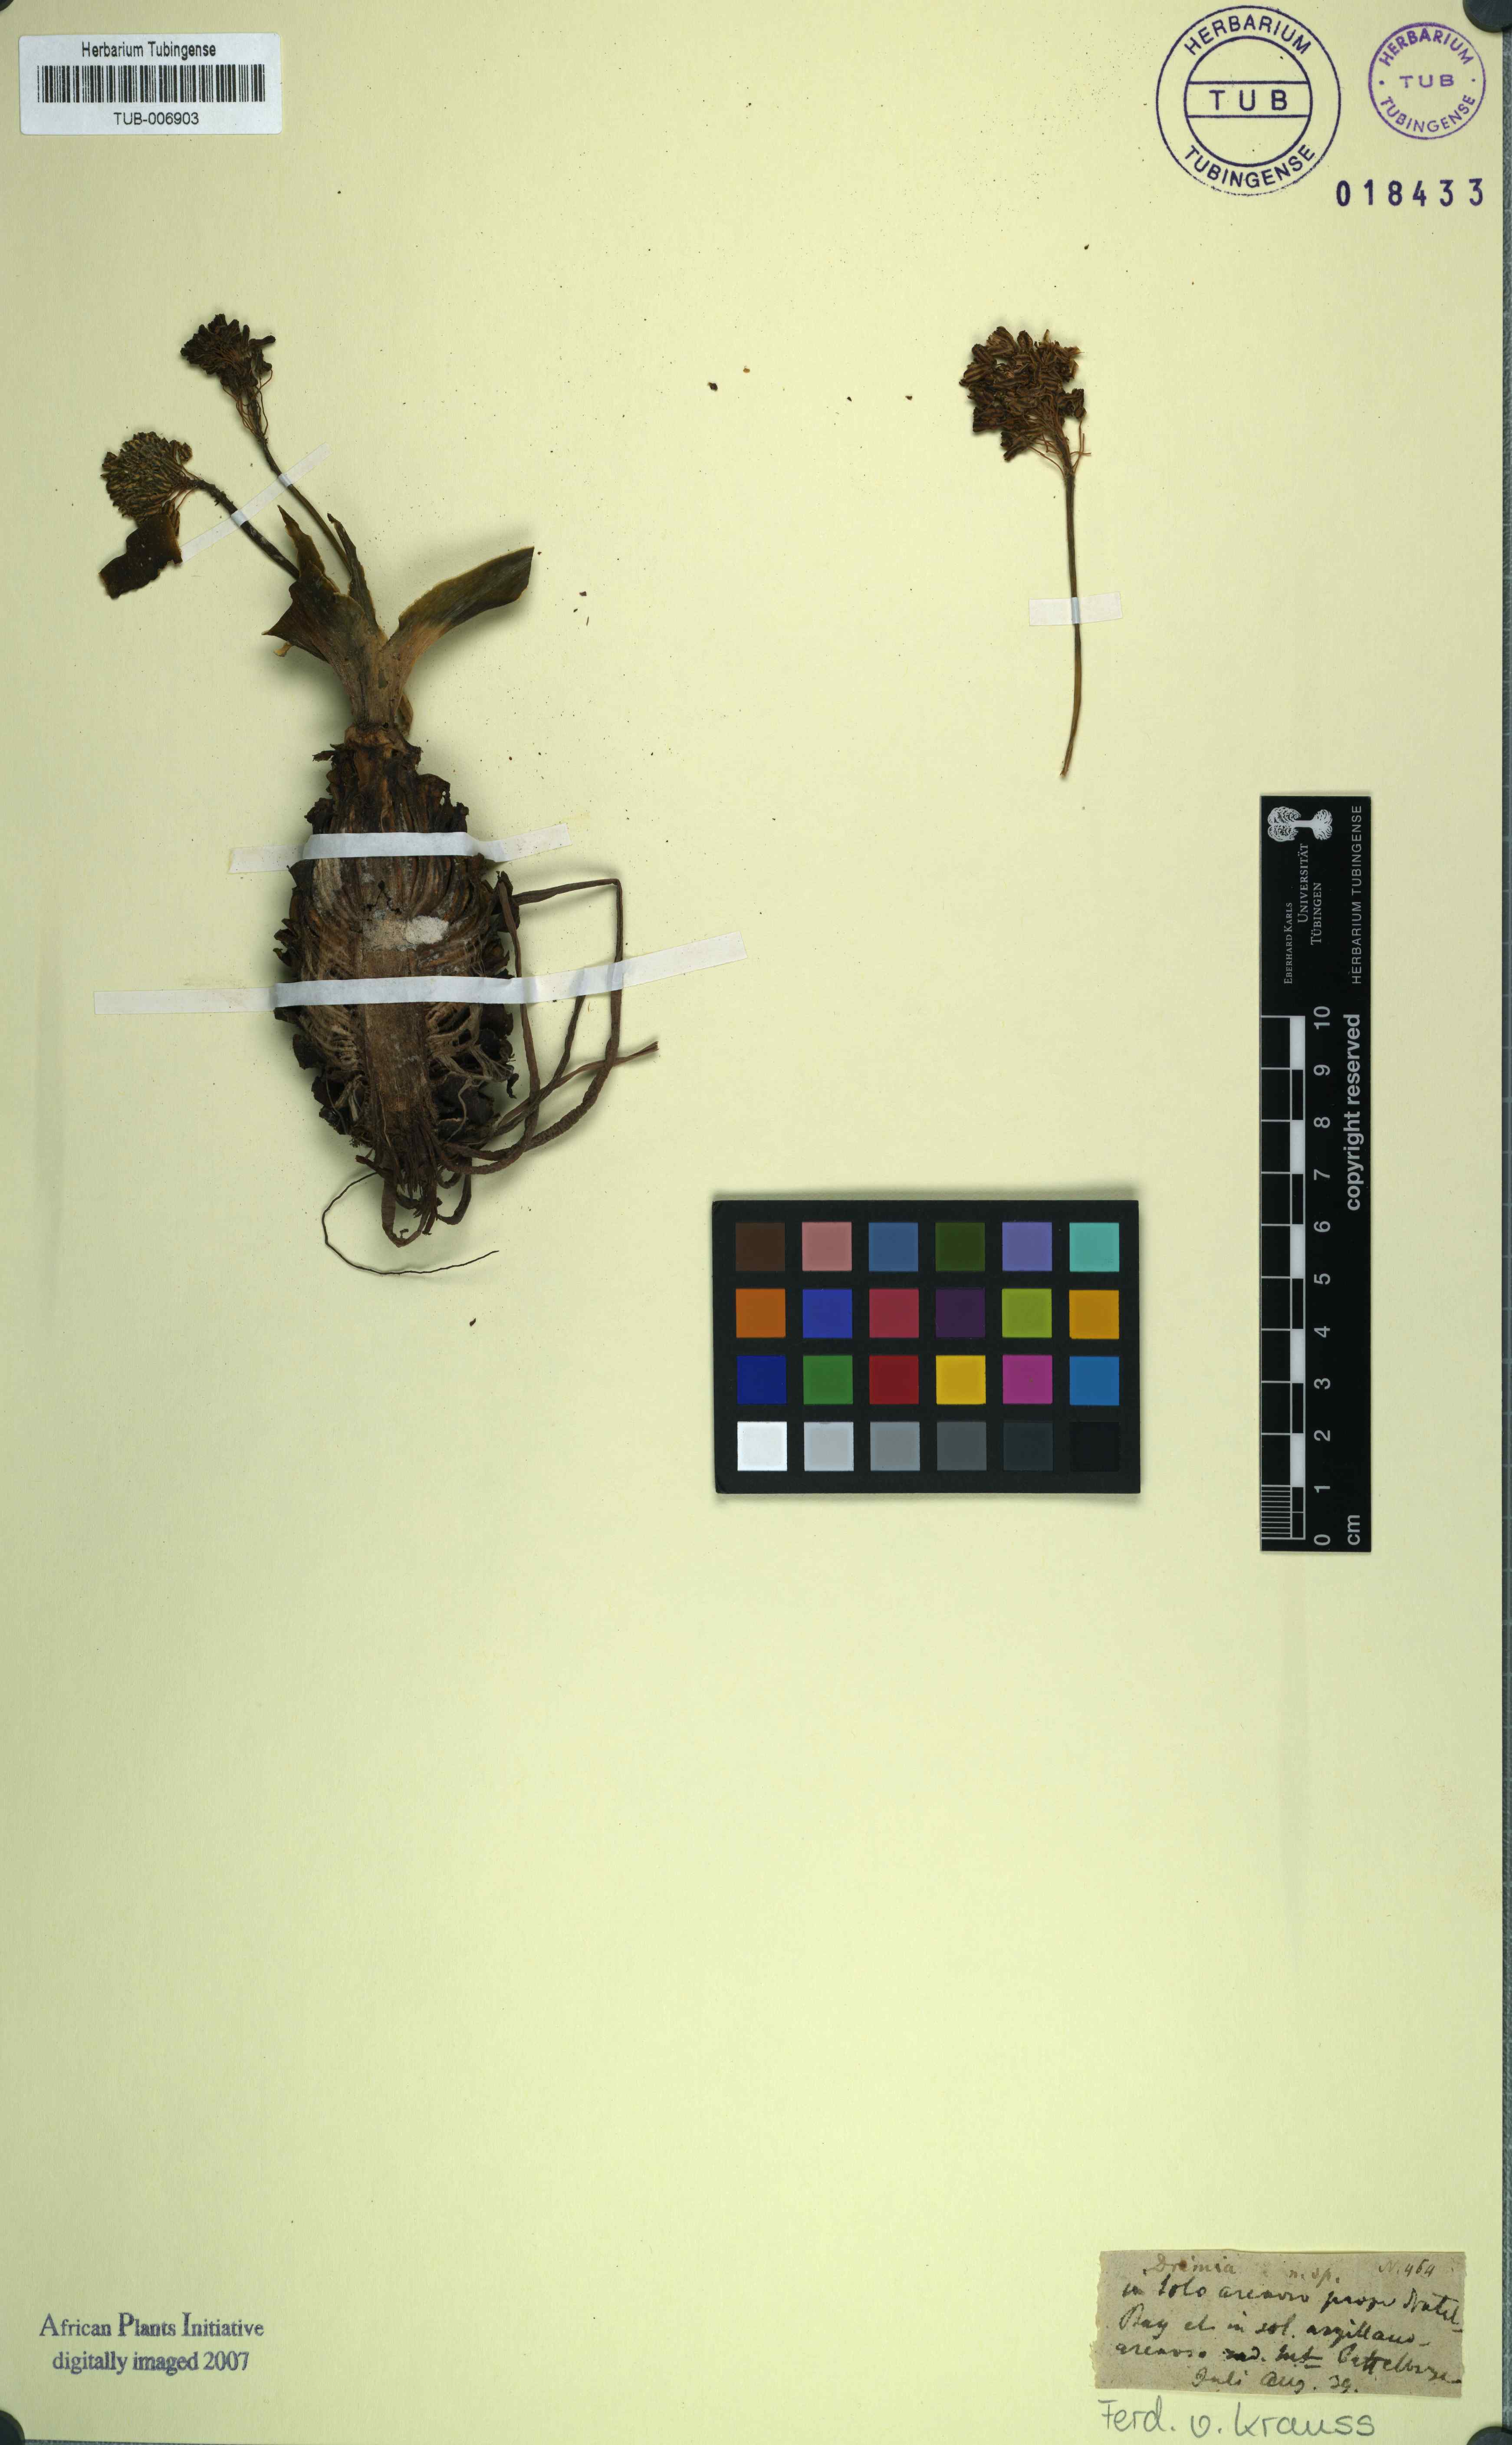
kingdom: Plantae
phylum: Tracheophyta
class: Liliopsida
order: Asparagales
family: Asparagaceae
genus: Drimia
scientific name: Drimia
